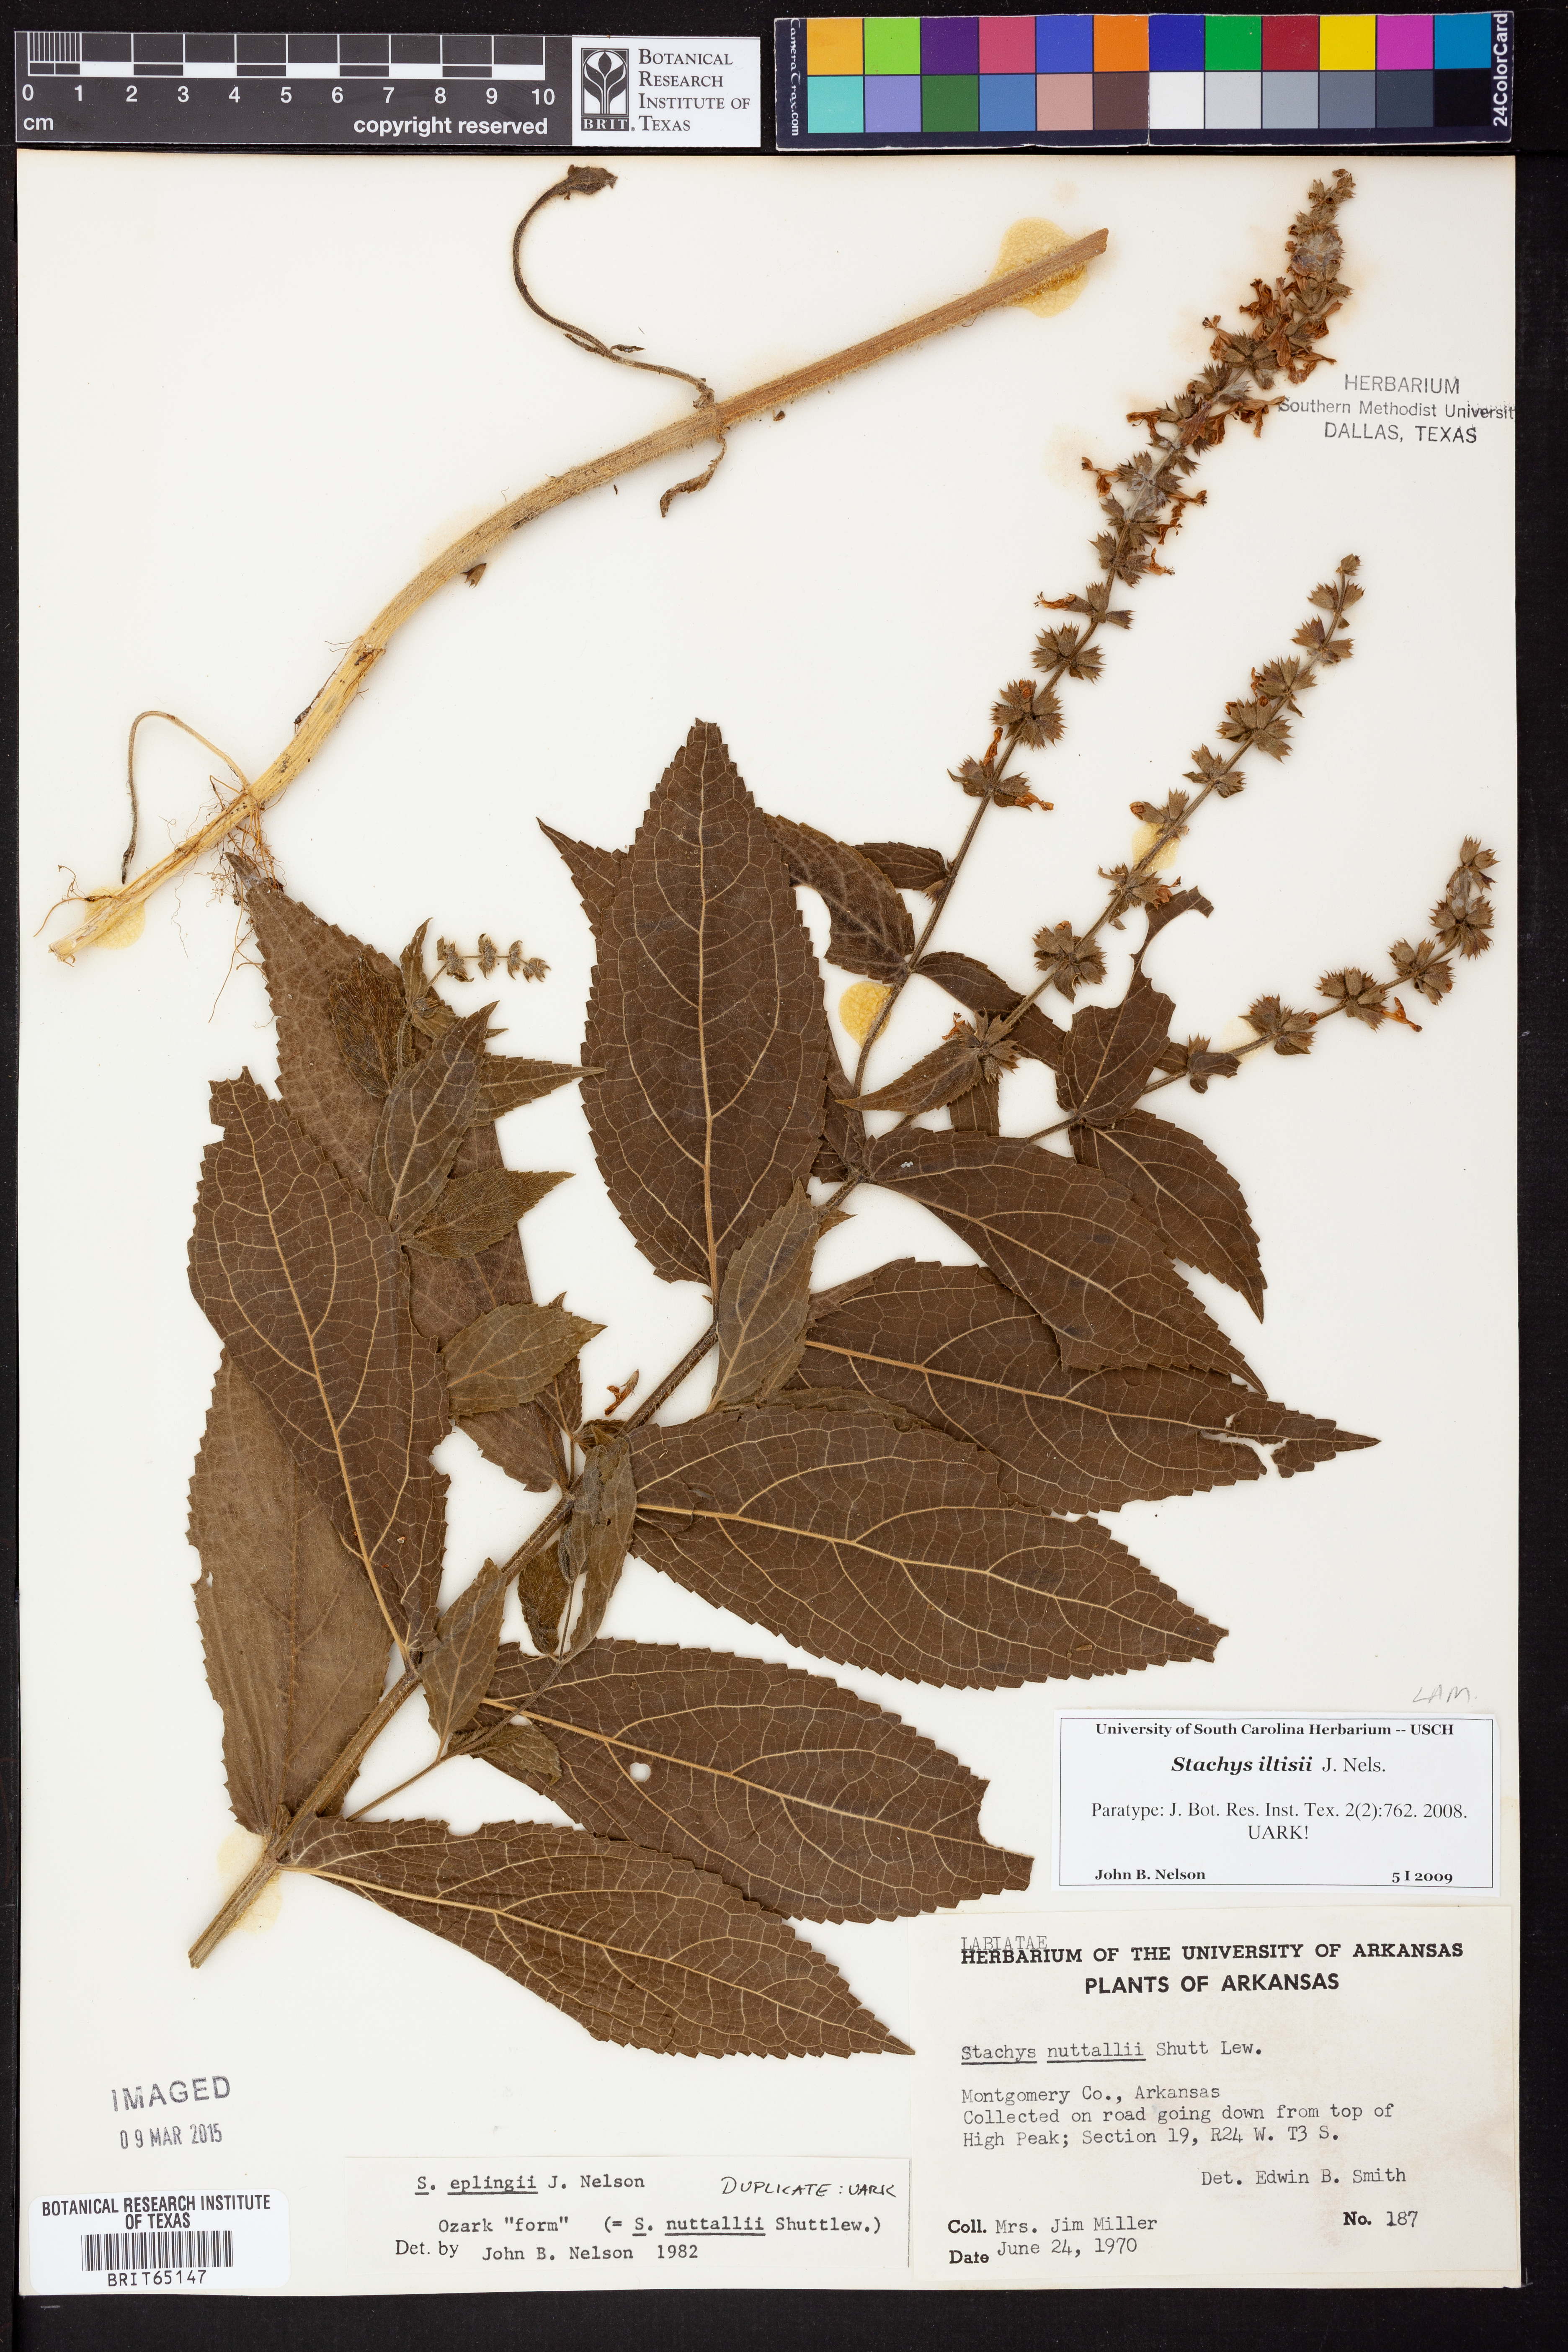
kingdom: Plantae
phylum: Tracheophyta
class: Magnoliopsida
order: Lamiales
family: Lamiaceae
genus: Stachys
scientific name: Stachys iltisii
